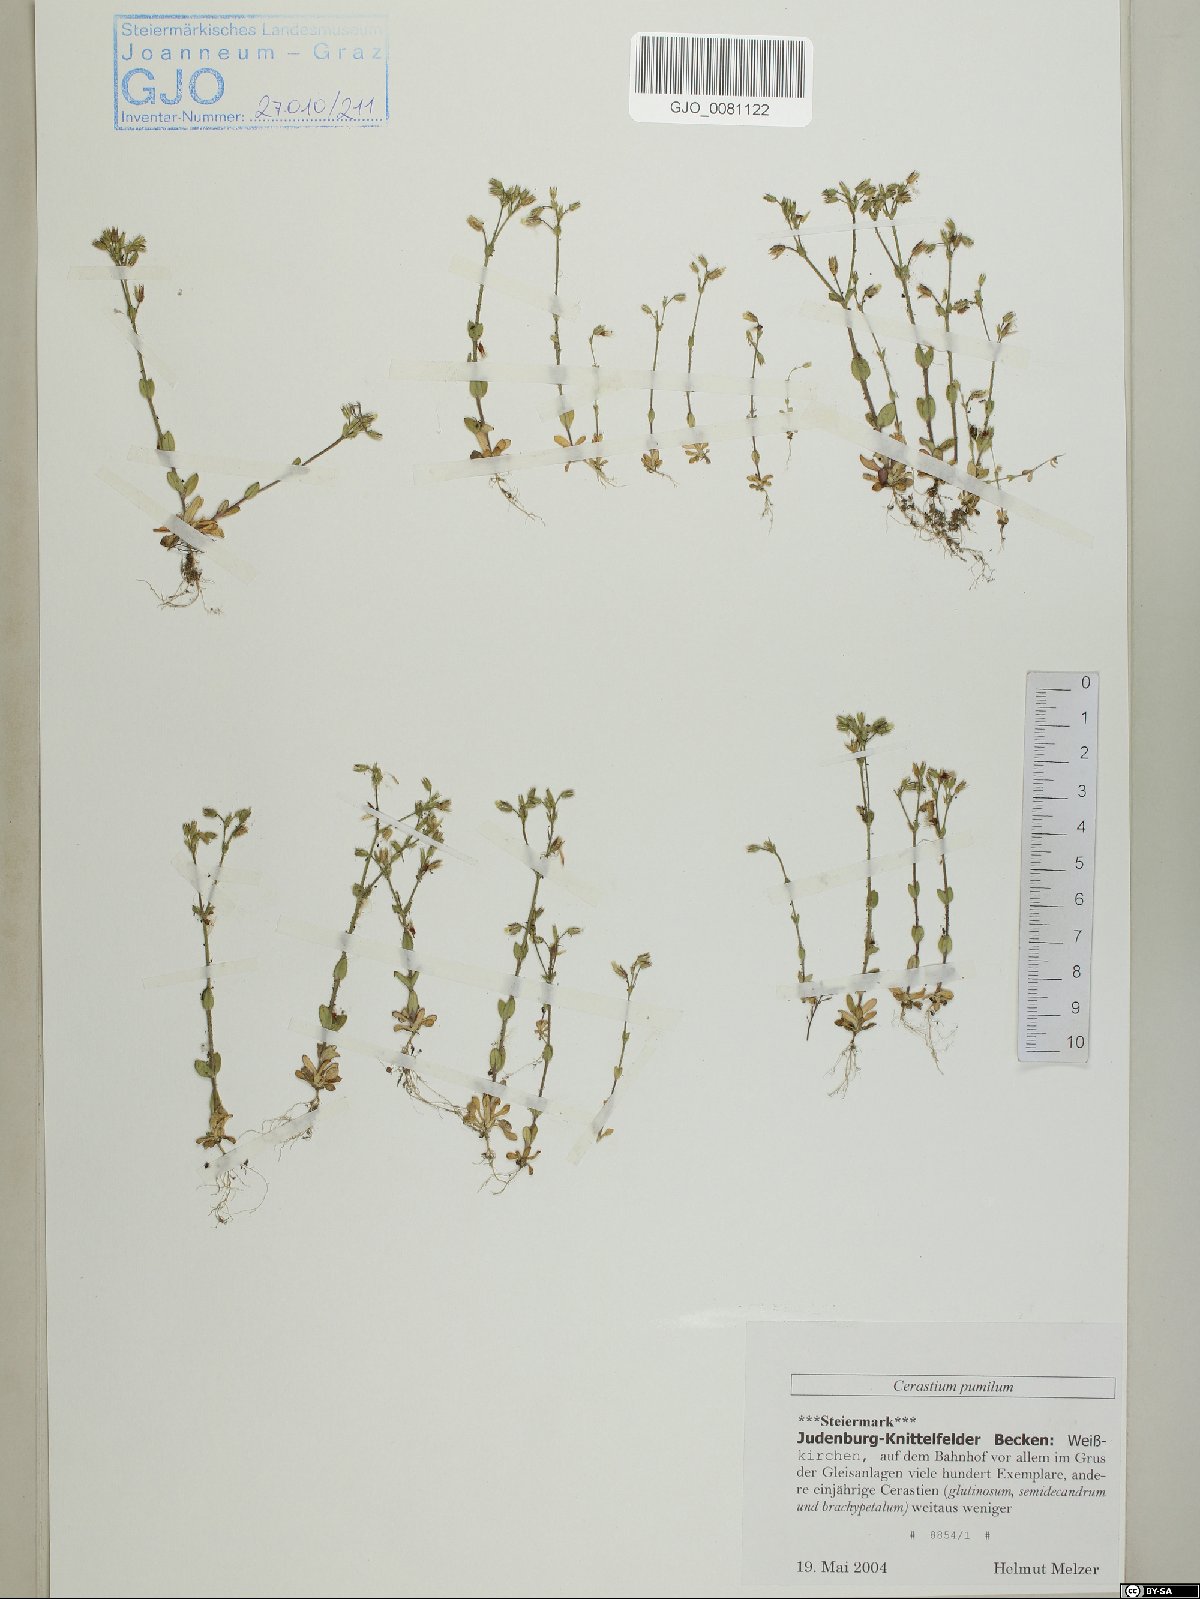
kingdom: Plantae
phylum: Tracheophyta
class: Magnoliopsida
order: Caryophyllales
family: Caryophyllaceae
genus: Cerastium
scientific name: Cerastium pumilum
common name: Dwarf mouse-ear
